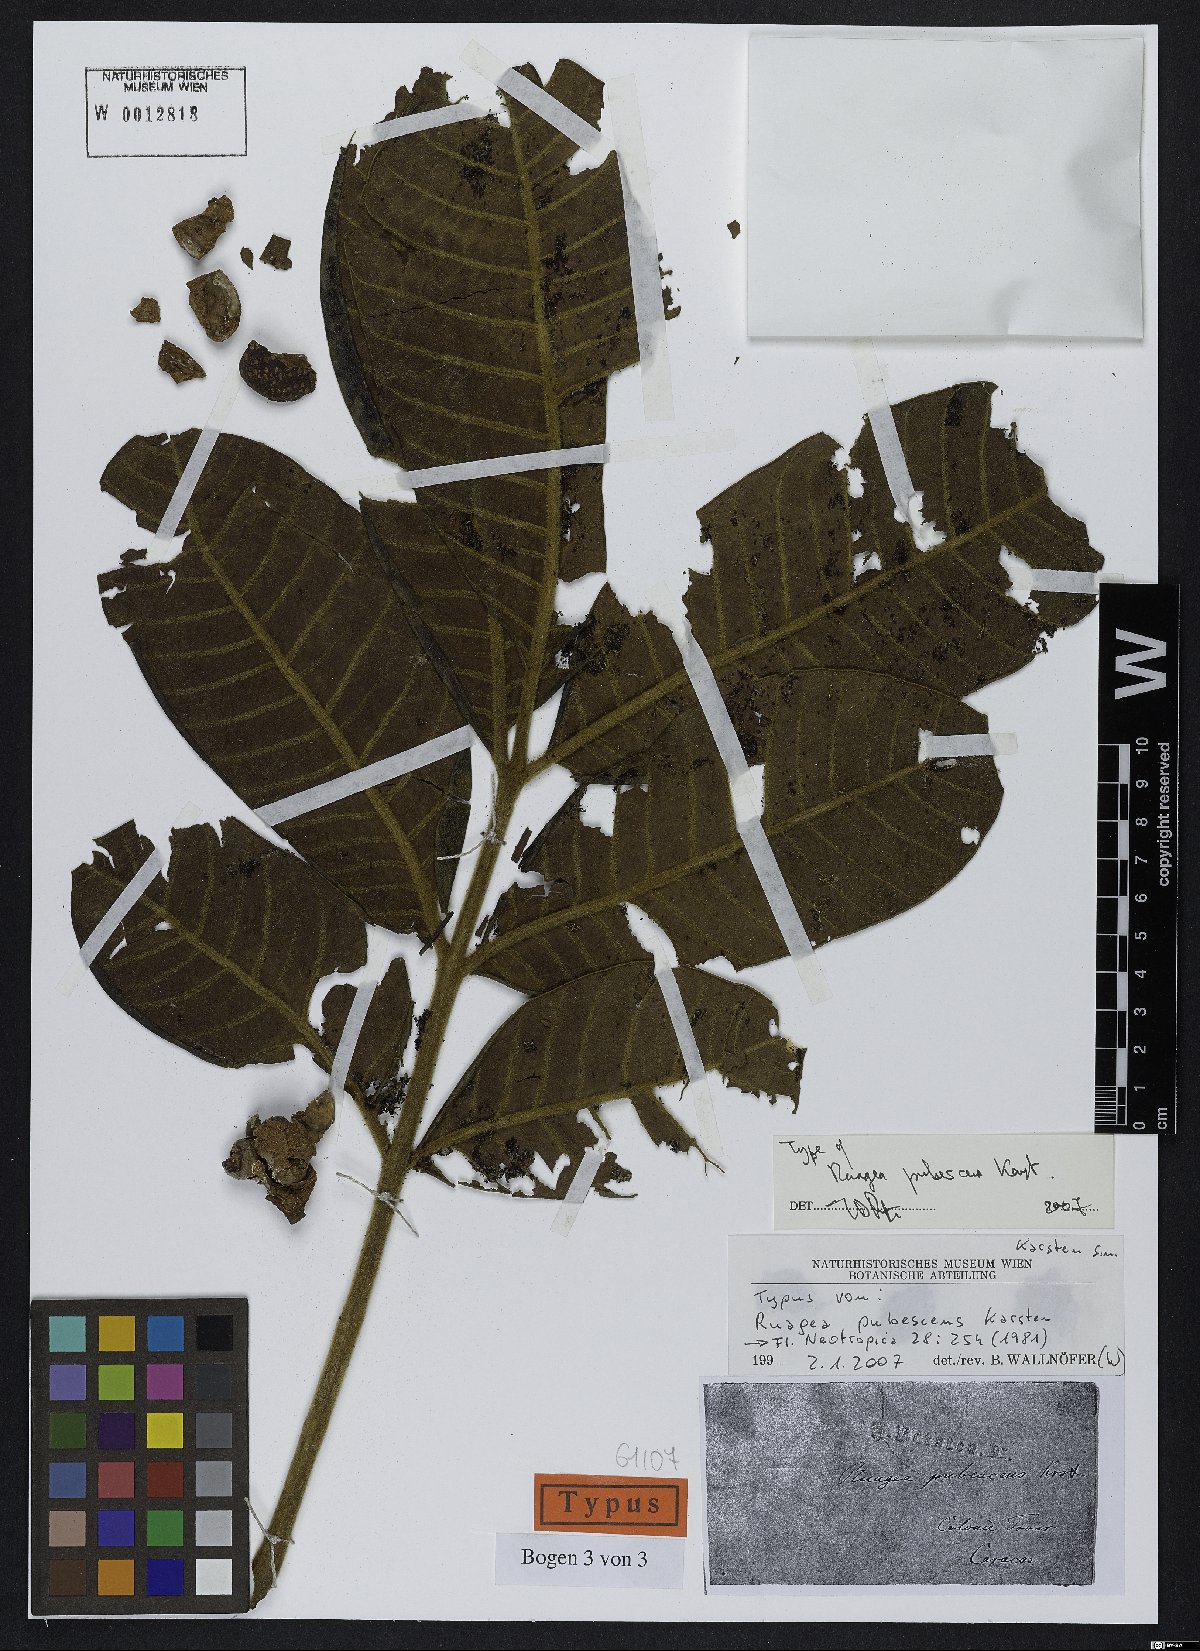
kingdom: Plantae
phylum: Tracheophyta
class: Magnoliopsida
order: Sapindales
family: Meliaceae
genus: Ruagea
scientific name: Ruagea pubescens
